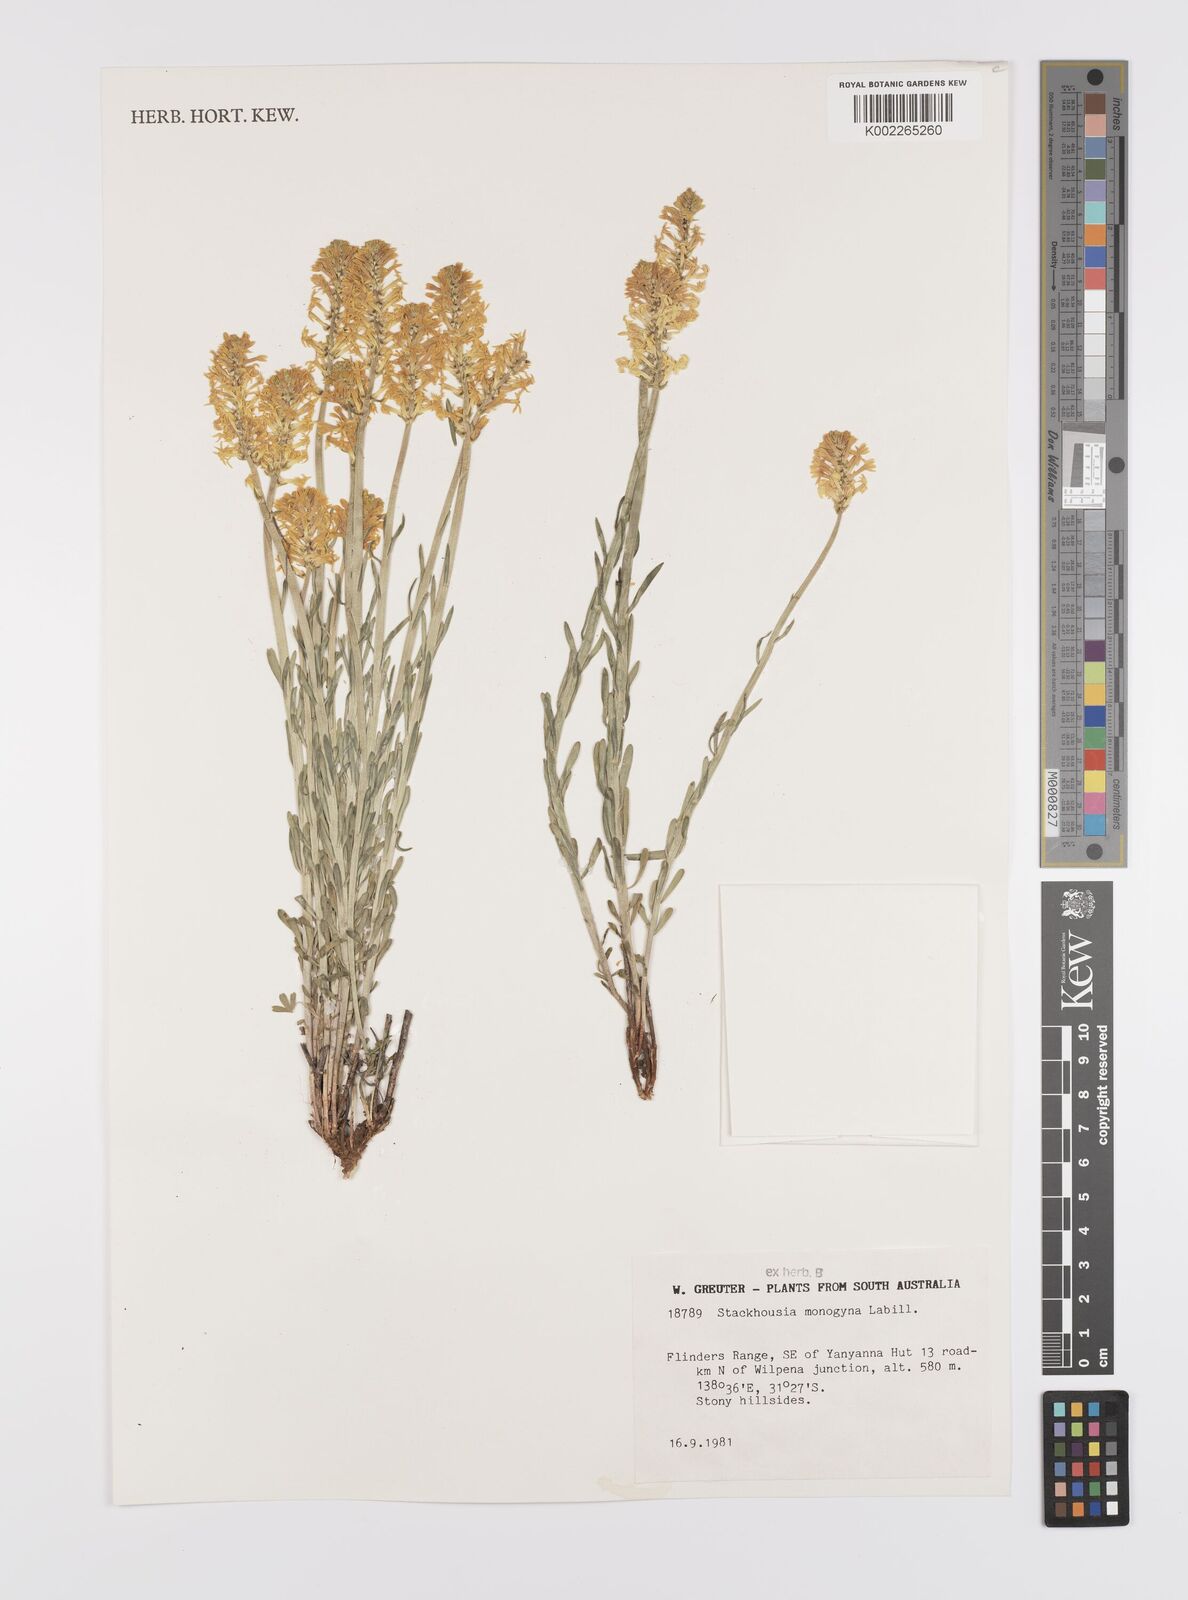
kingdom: Plantae
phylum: Tracheophyta
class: Magnoliopsida
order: Celastrales
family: Celastraceae
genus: Stackhousia
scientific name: Stackhousia monogyna
